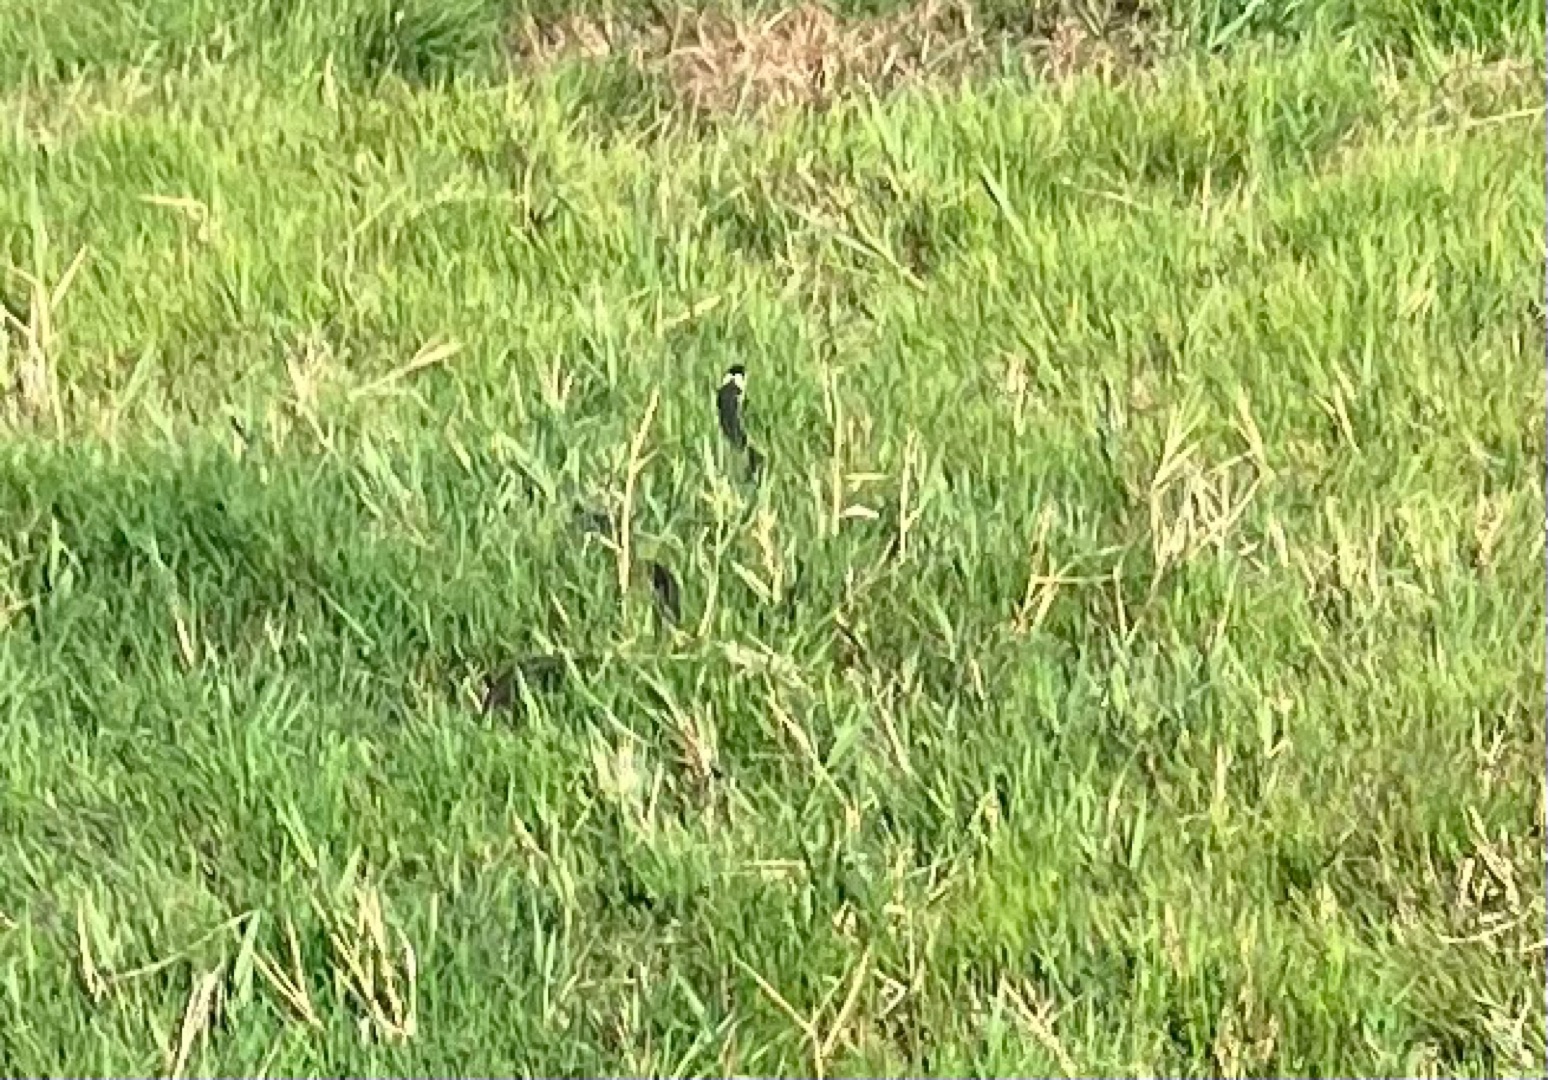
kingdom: Animalia
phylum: Chordata
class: Squamata
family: Colubridae
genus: Natrix
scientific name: Natrix natrix
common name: Snog
